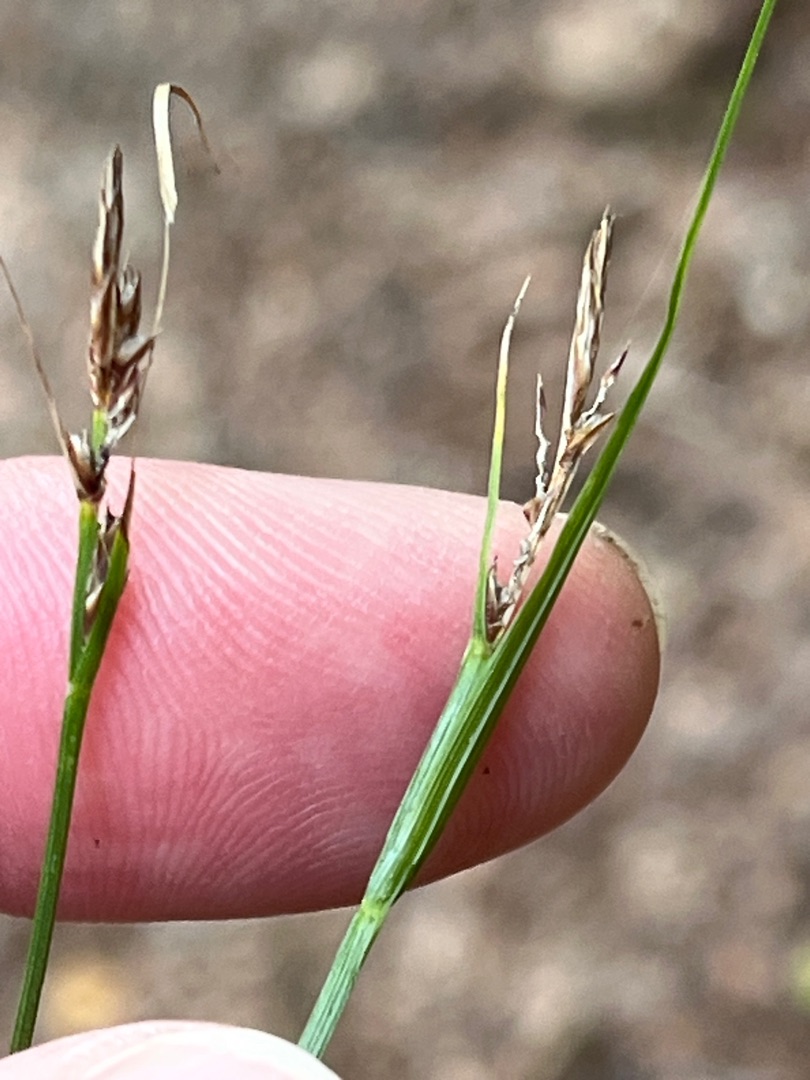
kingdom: Plantae
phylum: Tracheophyta
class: Liliopsida
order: Poales
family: Cyperaceae
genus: Carex
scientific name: Carex pilulifera
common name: Pille-star
